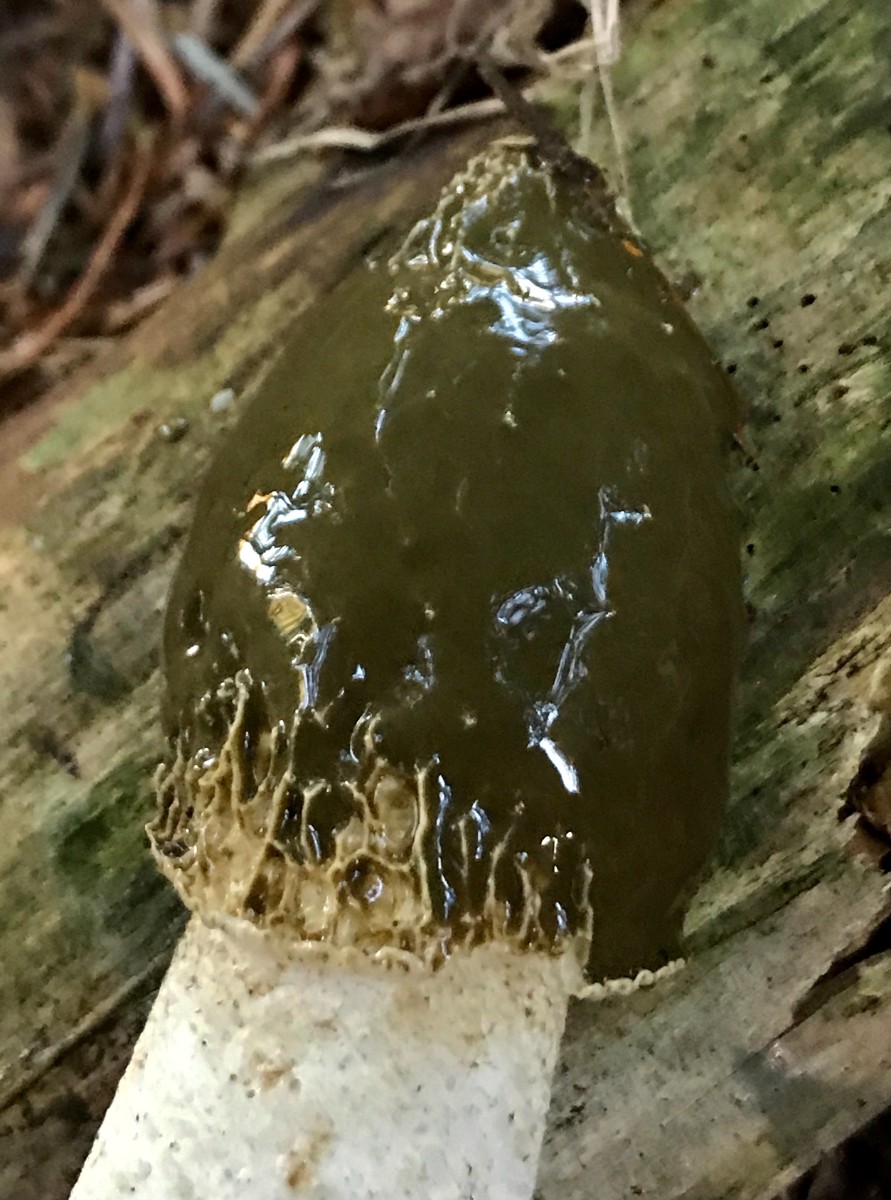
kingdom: Fungi
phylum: Basidiomycota
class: Agaricomycetes
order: Phallales
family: Phallaceae
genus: Phallus
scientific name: Phallus impudicus
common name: almindelig stinksvamp
